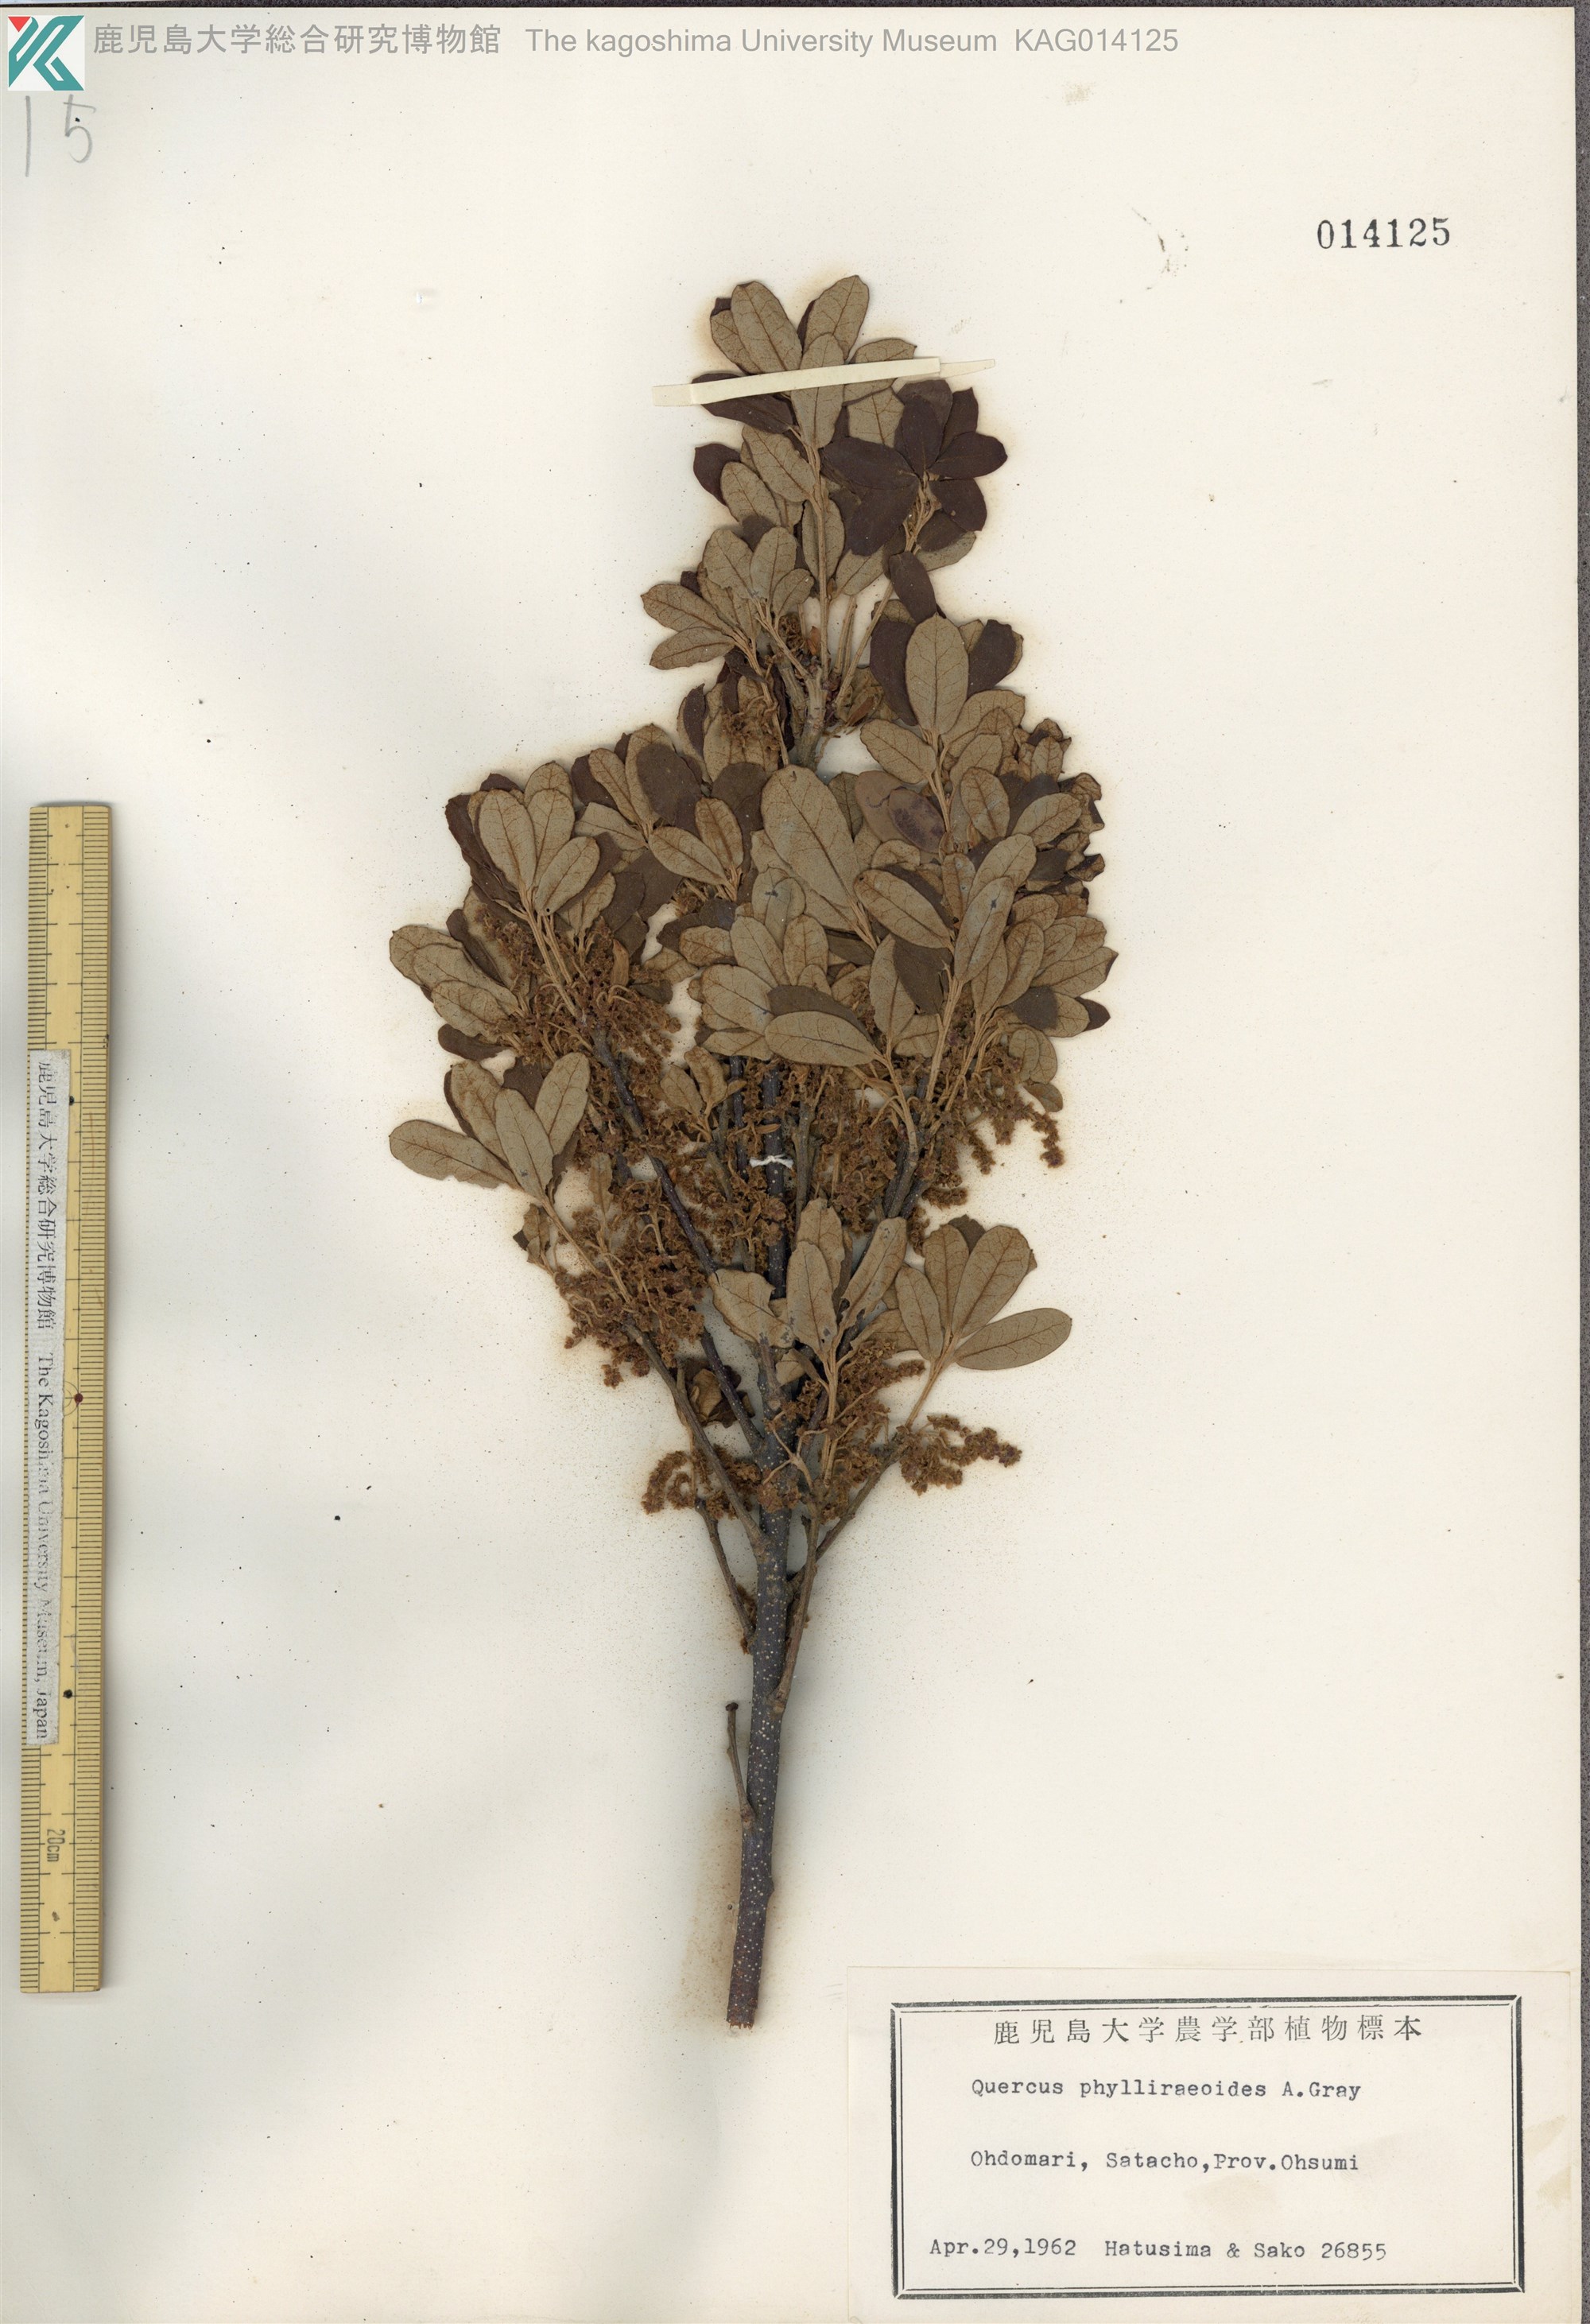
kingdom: Plantae
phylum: Tracheophyta
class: Magnoliopsida
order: Fagales
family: Fagaceae
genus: Quercus
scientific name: Quercus phillyraeoides
